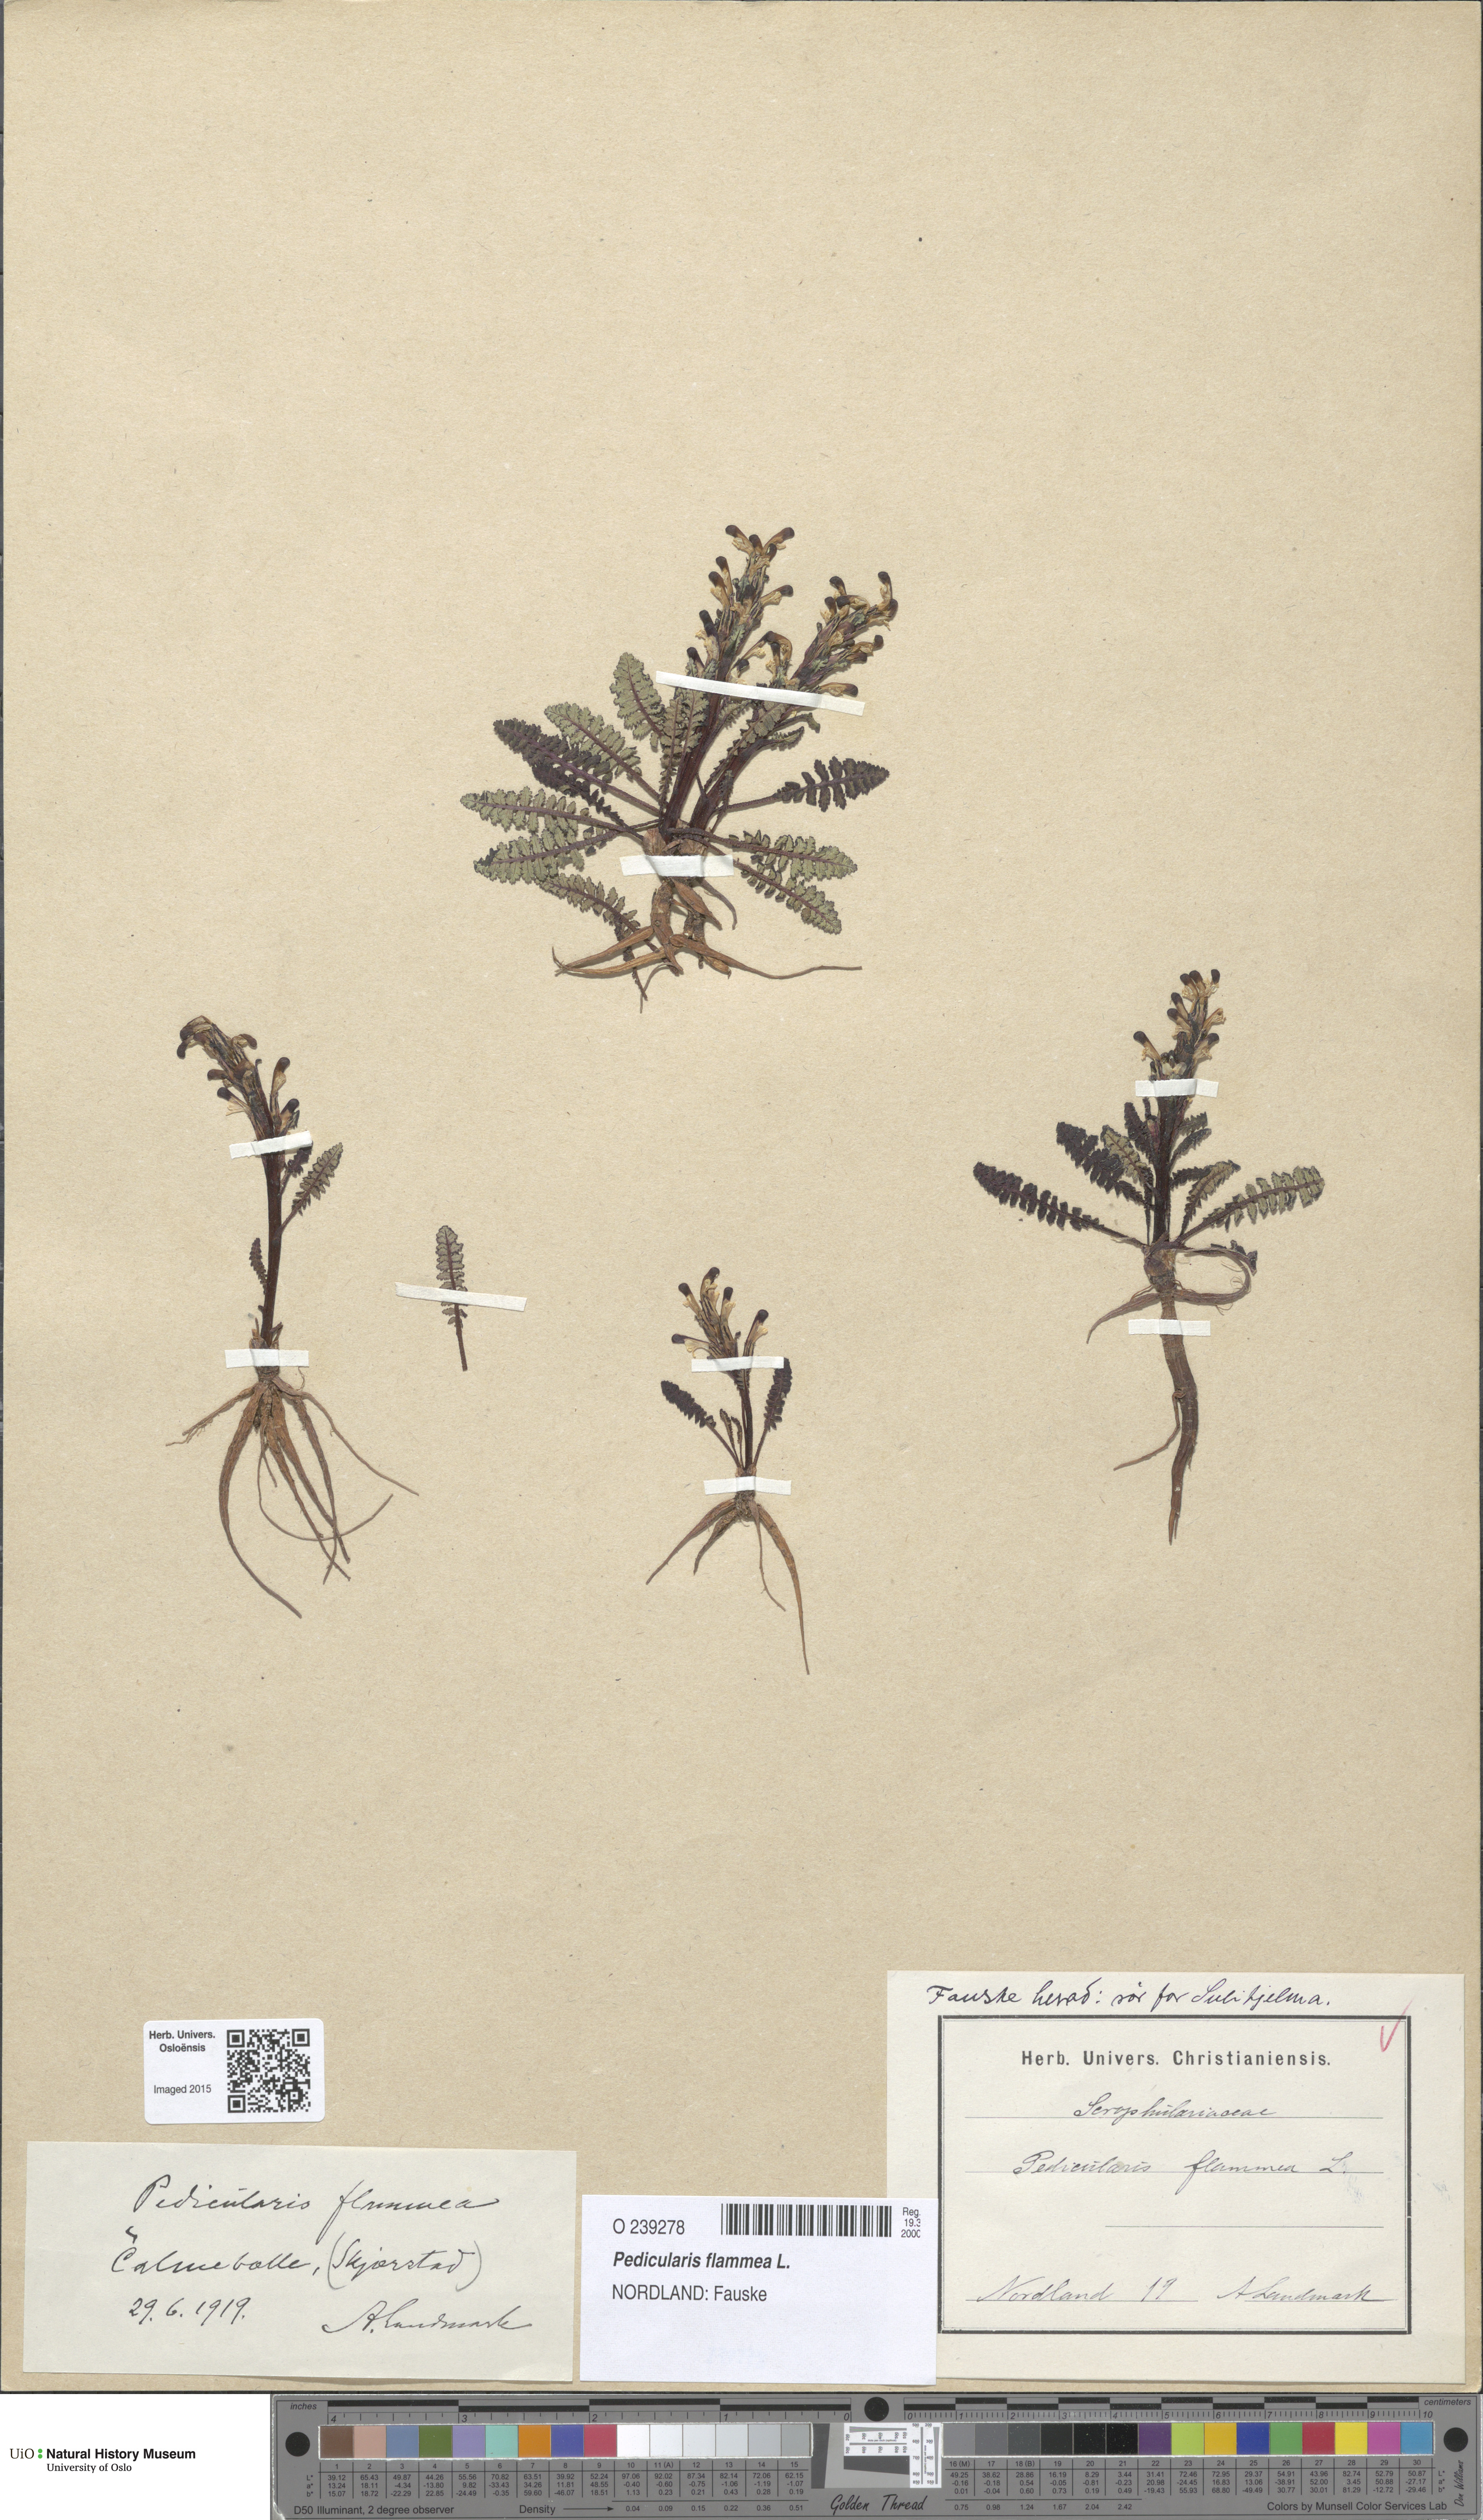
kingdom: Plantae
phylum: Tracheophyta
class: Magnoliopsida
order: Lamiales
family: Orobanchaceae
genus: Pedicularis
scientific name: Pedicularis flammea
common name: Flame-coloured lousewort
